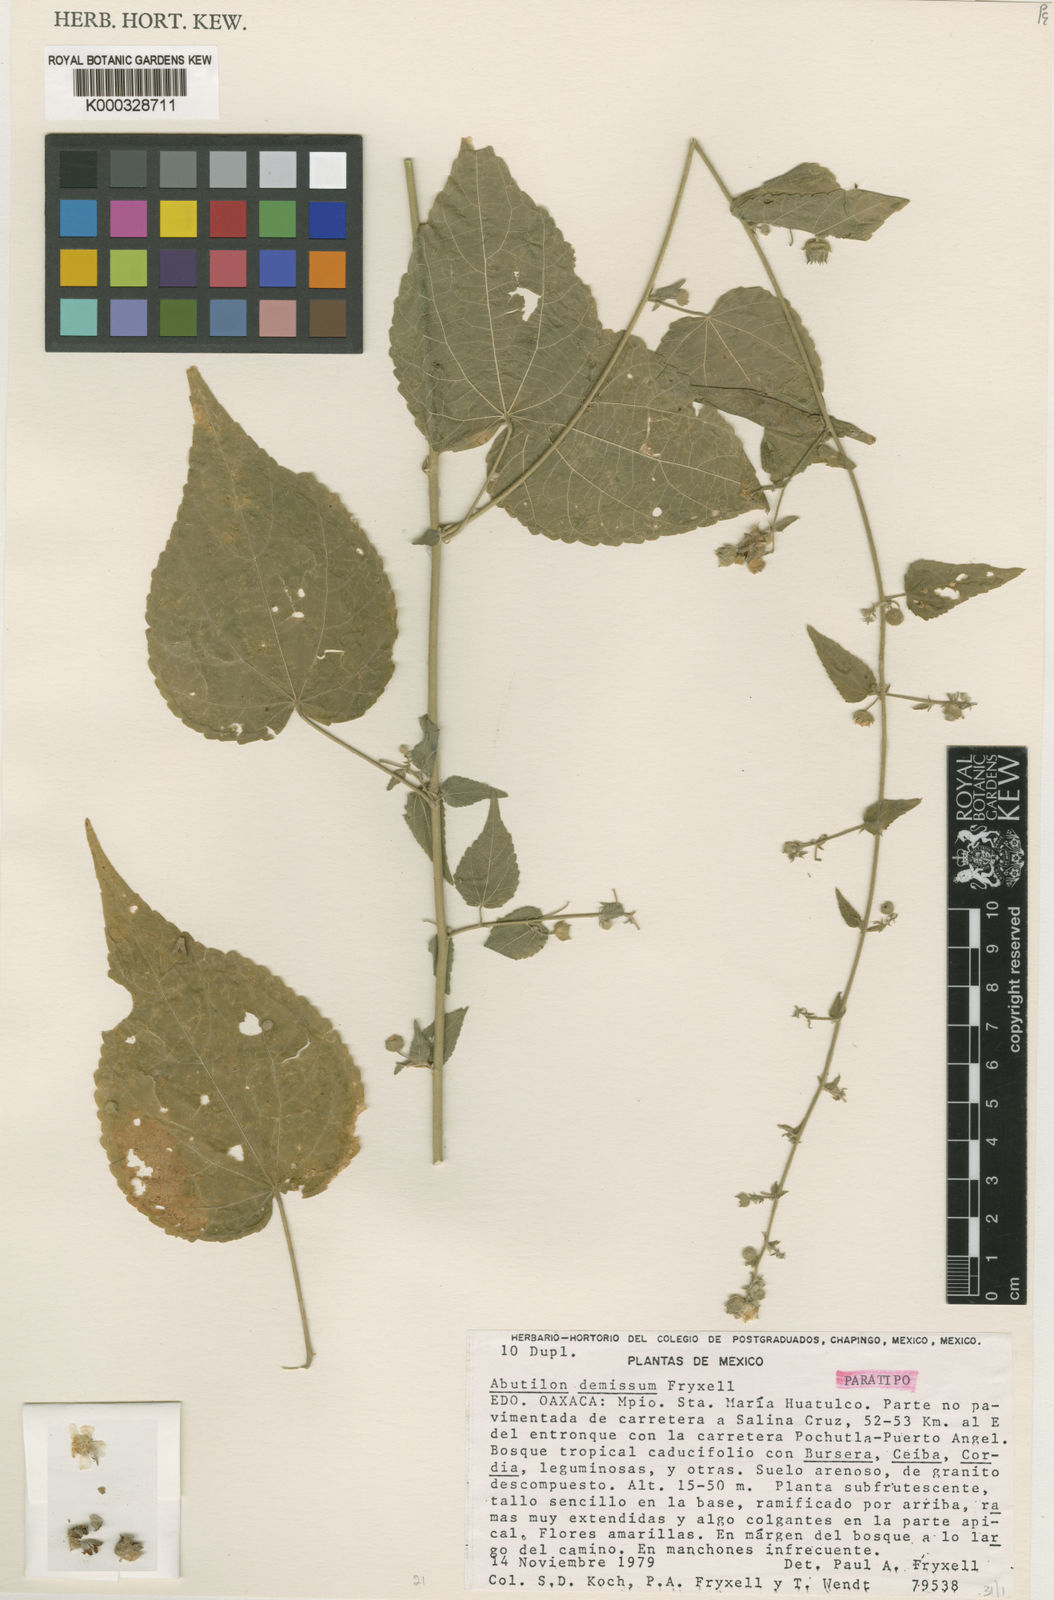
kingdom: Plantae
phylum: Tracheophyta
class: Magnoliopsida
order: Malvales
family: Malvaceae
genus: Pseudabutilon
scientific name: Pseudabutilon orientale
